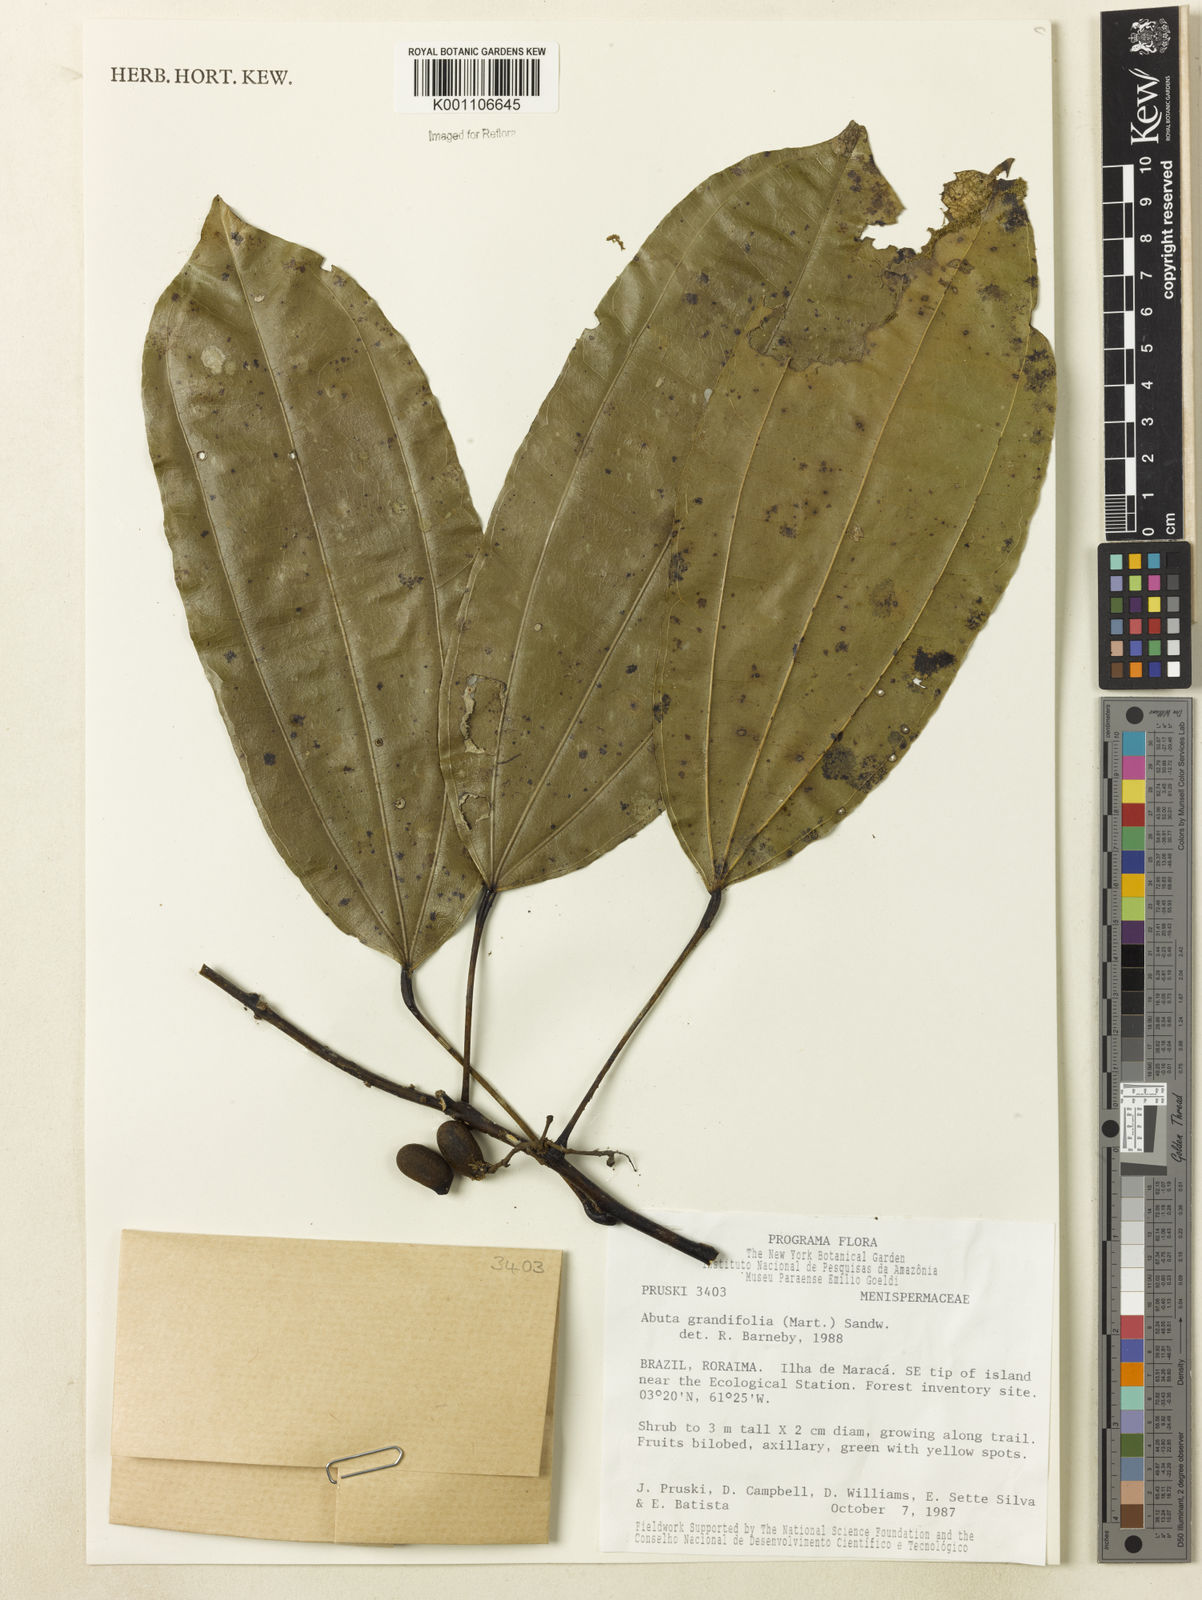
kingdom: Plantae
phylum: Tracheophyta
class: Magnoliopsida
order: Ranunculales
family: Menispermaceae
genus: Abuta
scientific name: Abuta grandifolia
